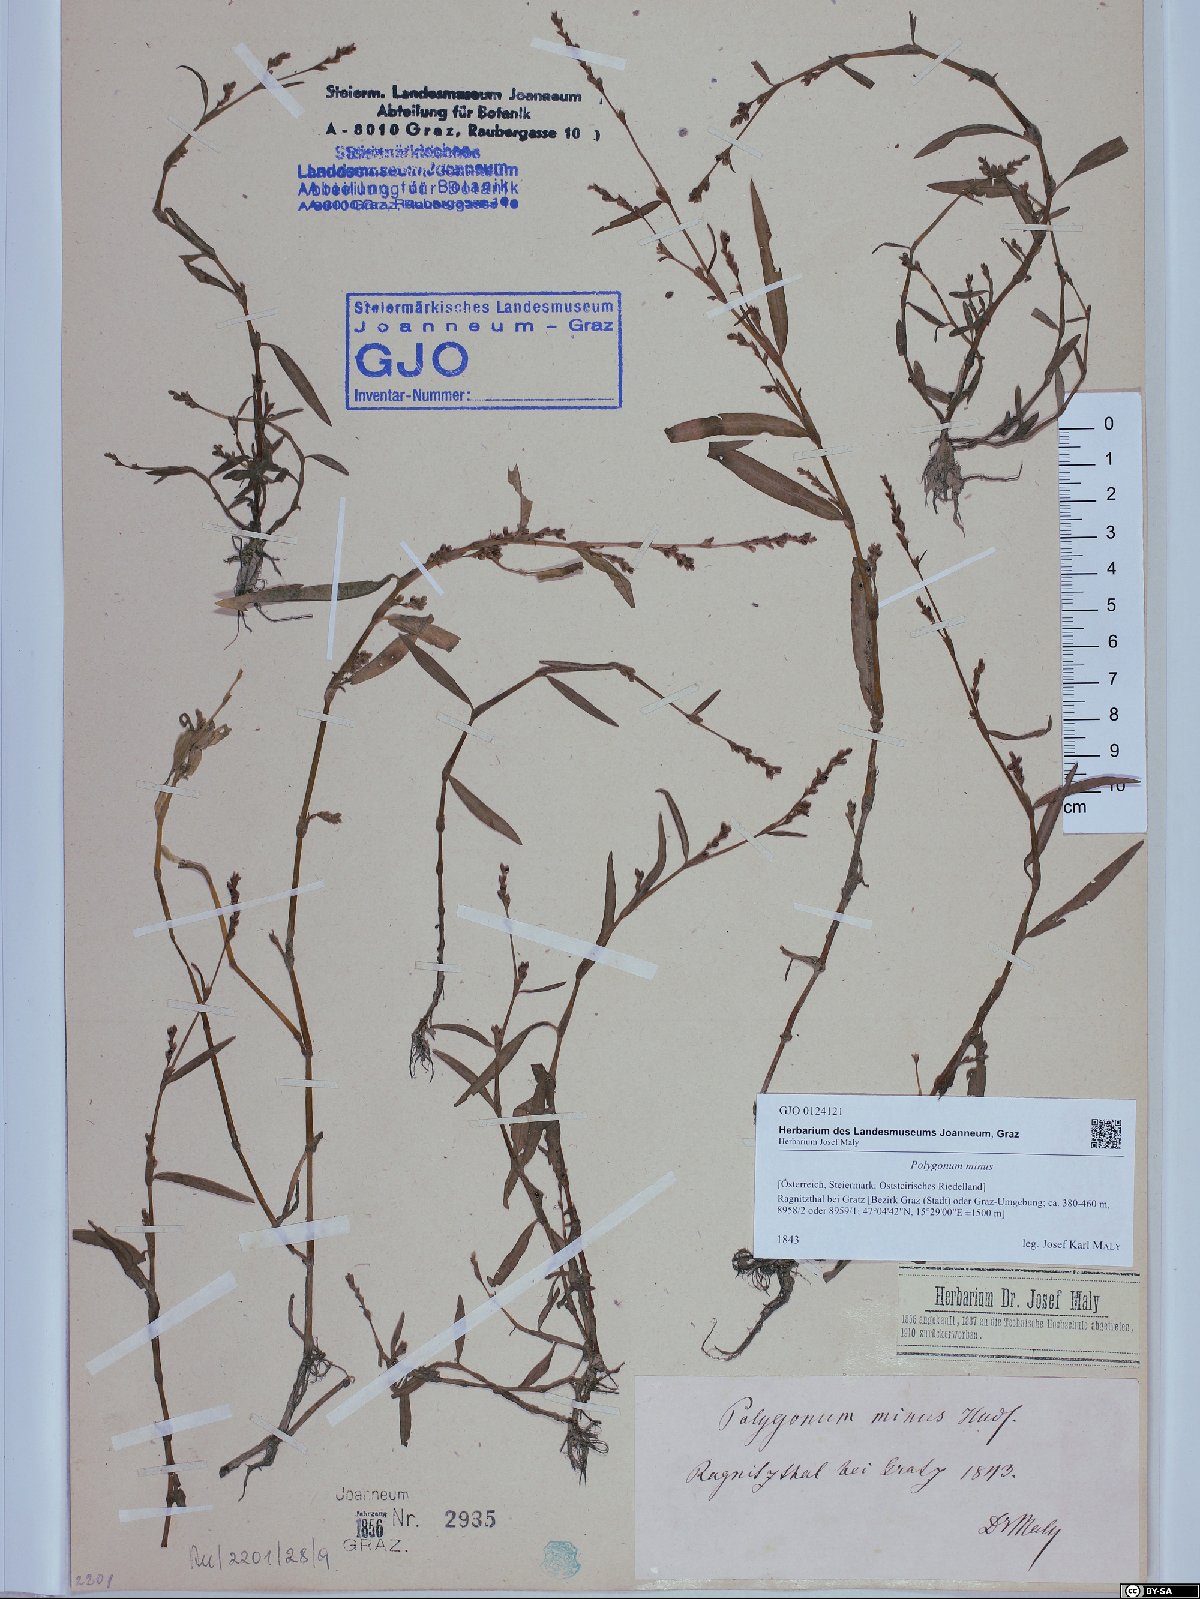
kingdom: Plantae
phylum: Tracheophyta
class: Magnoliopsida
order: Caryophyllales
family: Polygonaceae
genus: Persicaria
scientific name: Persicaria minor
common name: Small water-pepper
